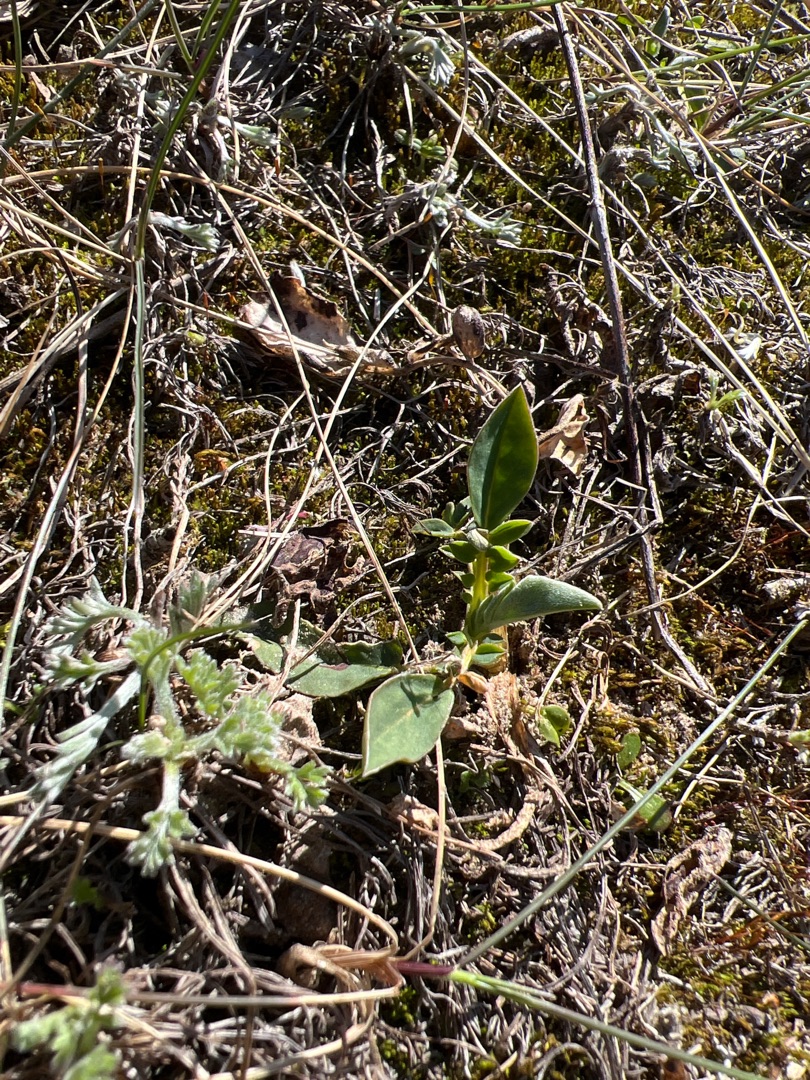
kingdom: Plantae
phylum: Tracheophyta
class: Magnoliopsida
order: Fabales
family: Fabaceae
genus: Anthyllis
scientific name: Anthyllis vulneraria
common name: Rundbælg
